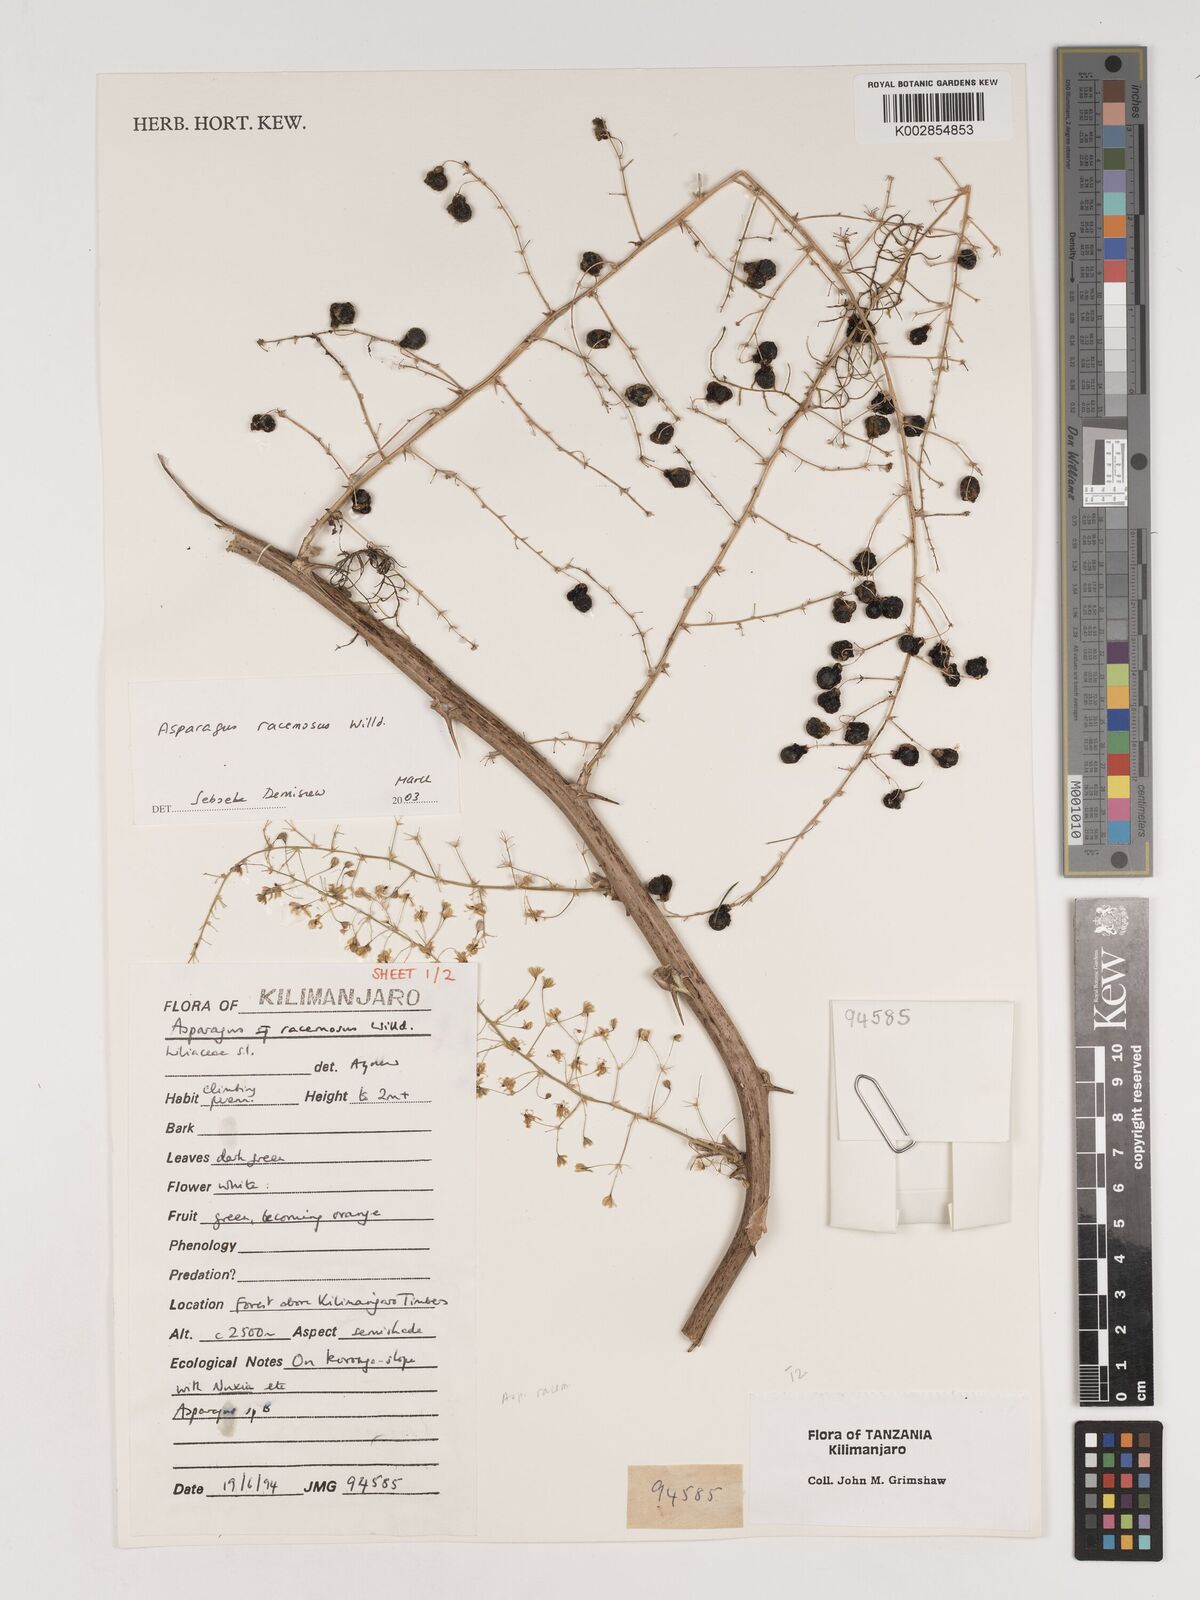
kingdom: Plantae
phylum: Tracheophyta
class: Liliopsida
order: Asparagales
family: Asparagaceae
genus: Asparagus
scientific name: Asparagus racemosus
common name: Asparagus-fern
